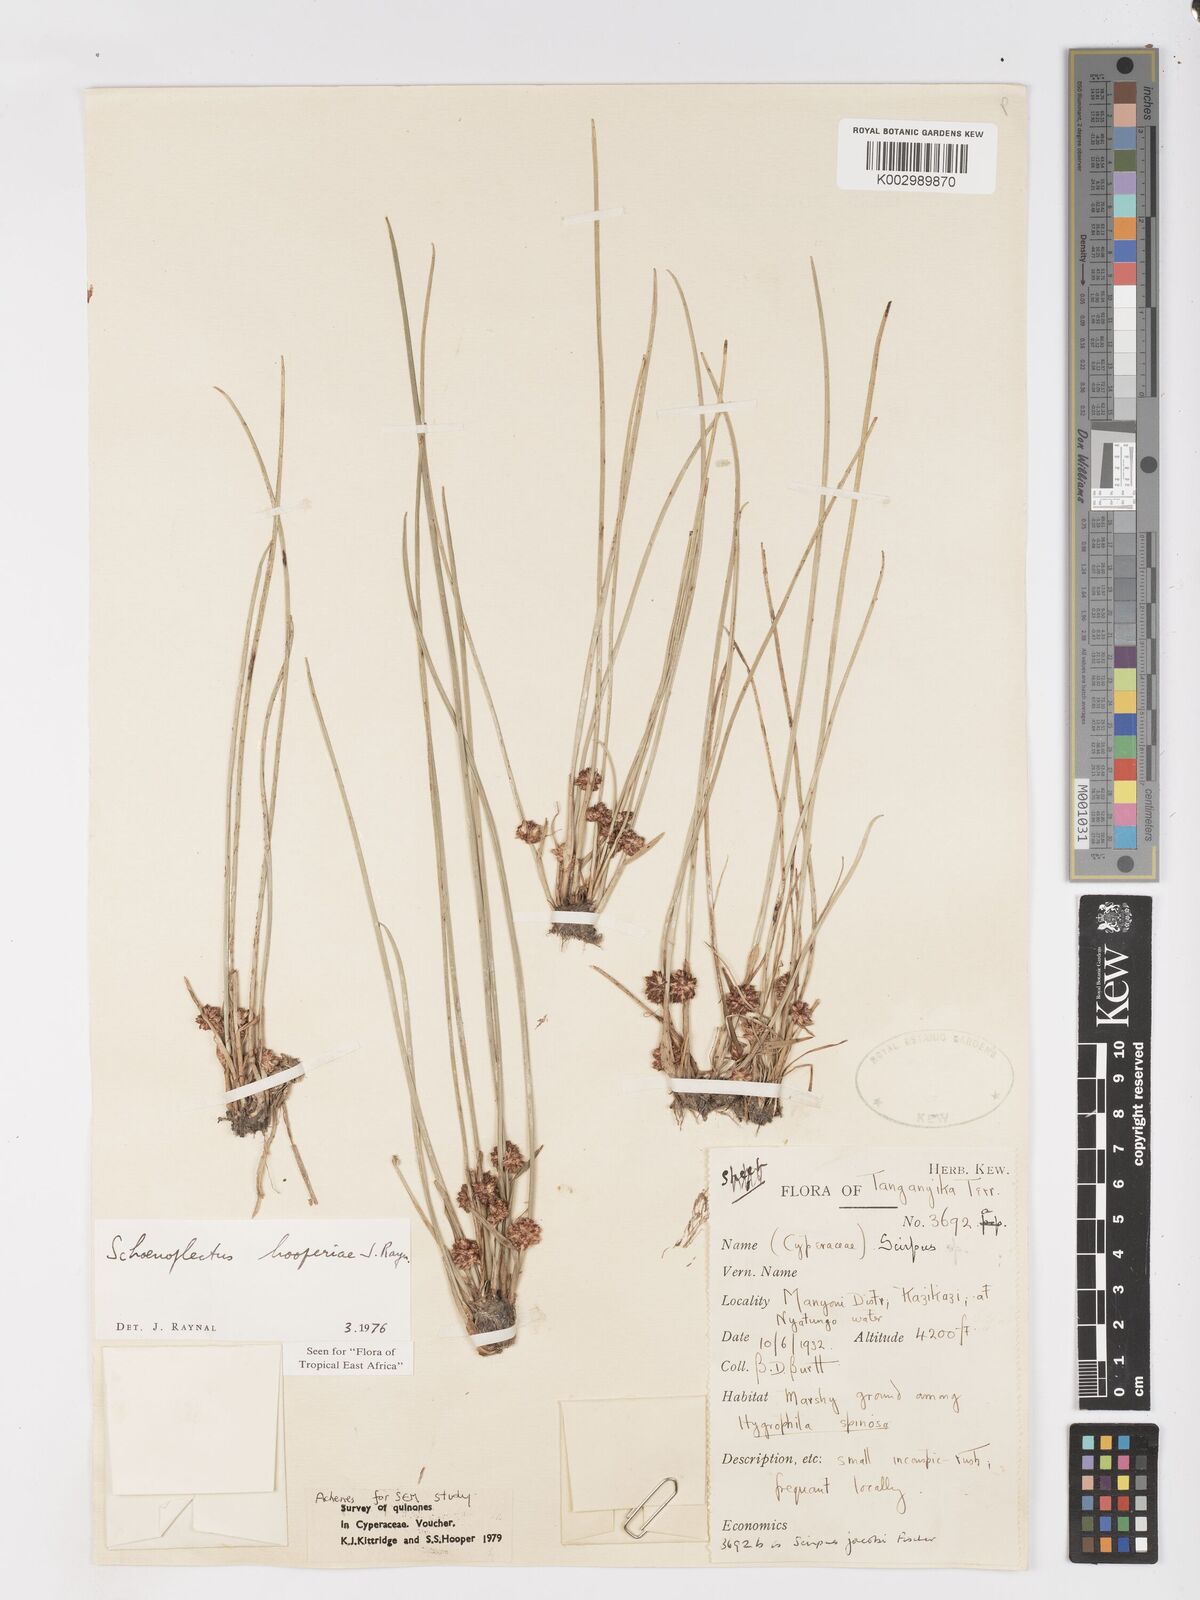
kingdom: Plantae
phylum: Tracheophyta
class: Liliopsida
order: Poales
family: Cyperaceae
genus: Schoenoplectiella
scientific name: Schoenoplectiella hooperae
